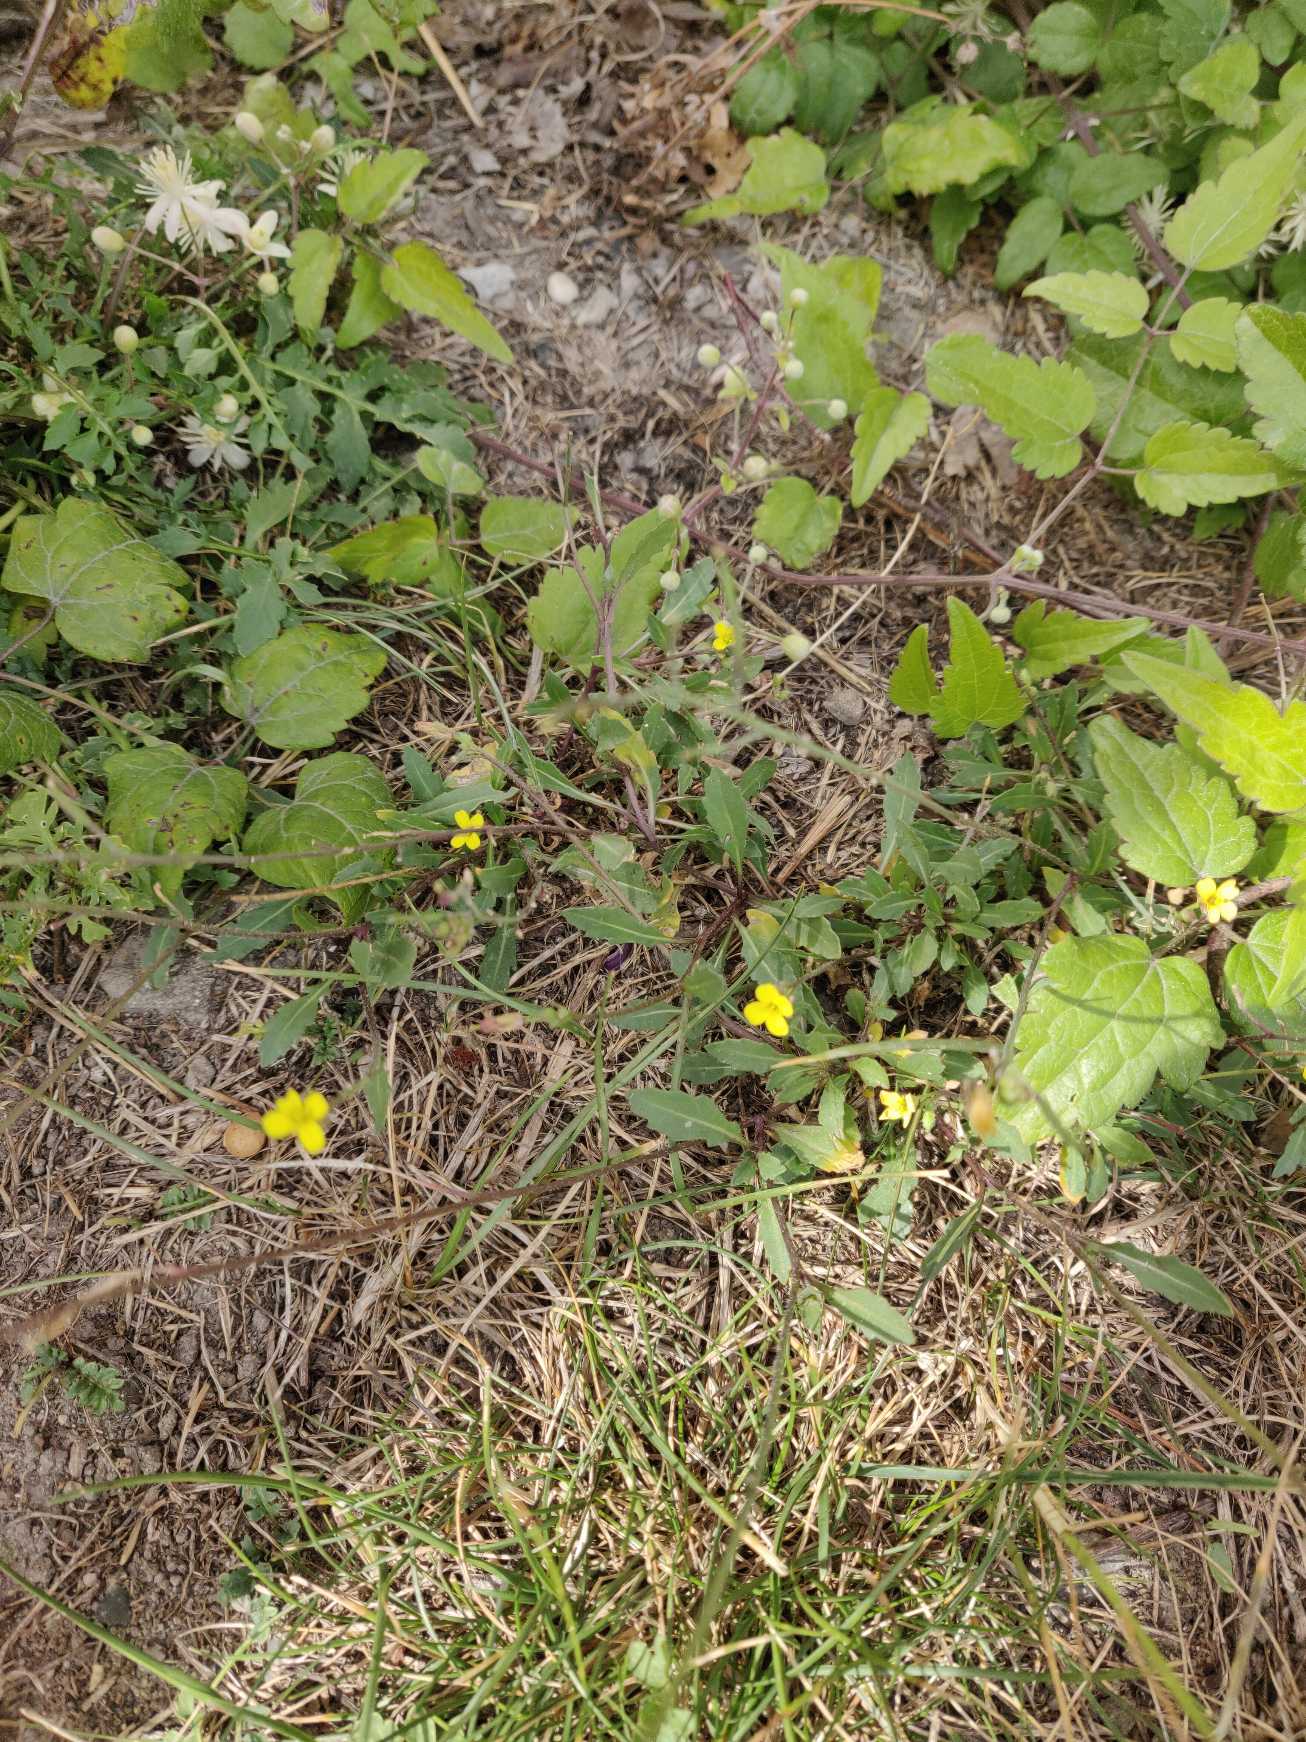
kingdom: Plantae
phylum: Tracheophyta
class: Magnoliopsida
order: Brassicales
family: Brassicaceae
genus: Diplotaxis
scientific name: Diplotaxis muralis
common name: Mursennep
